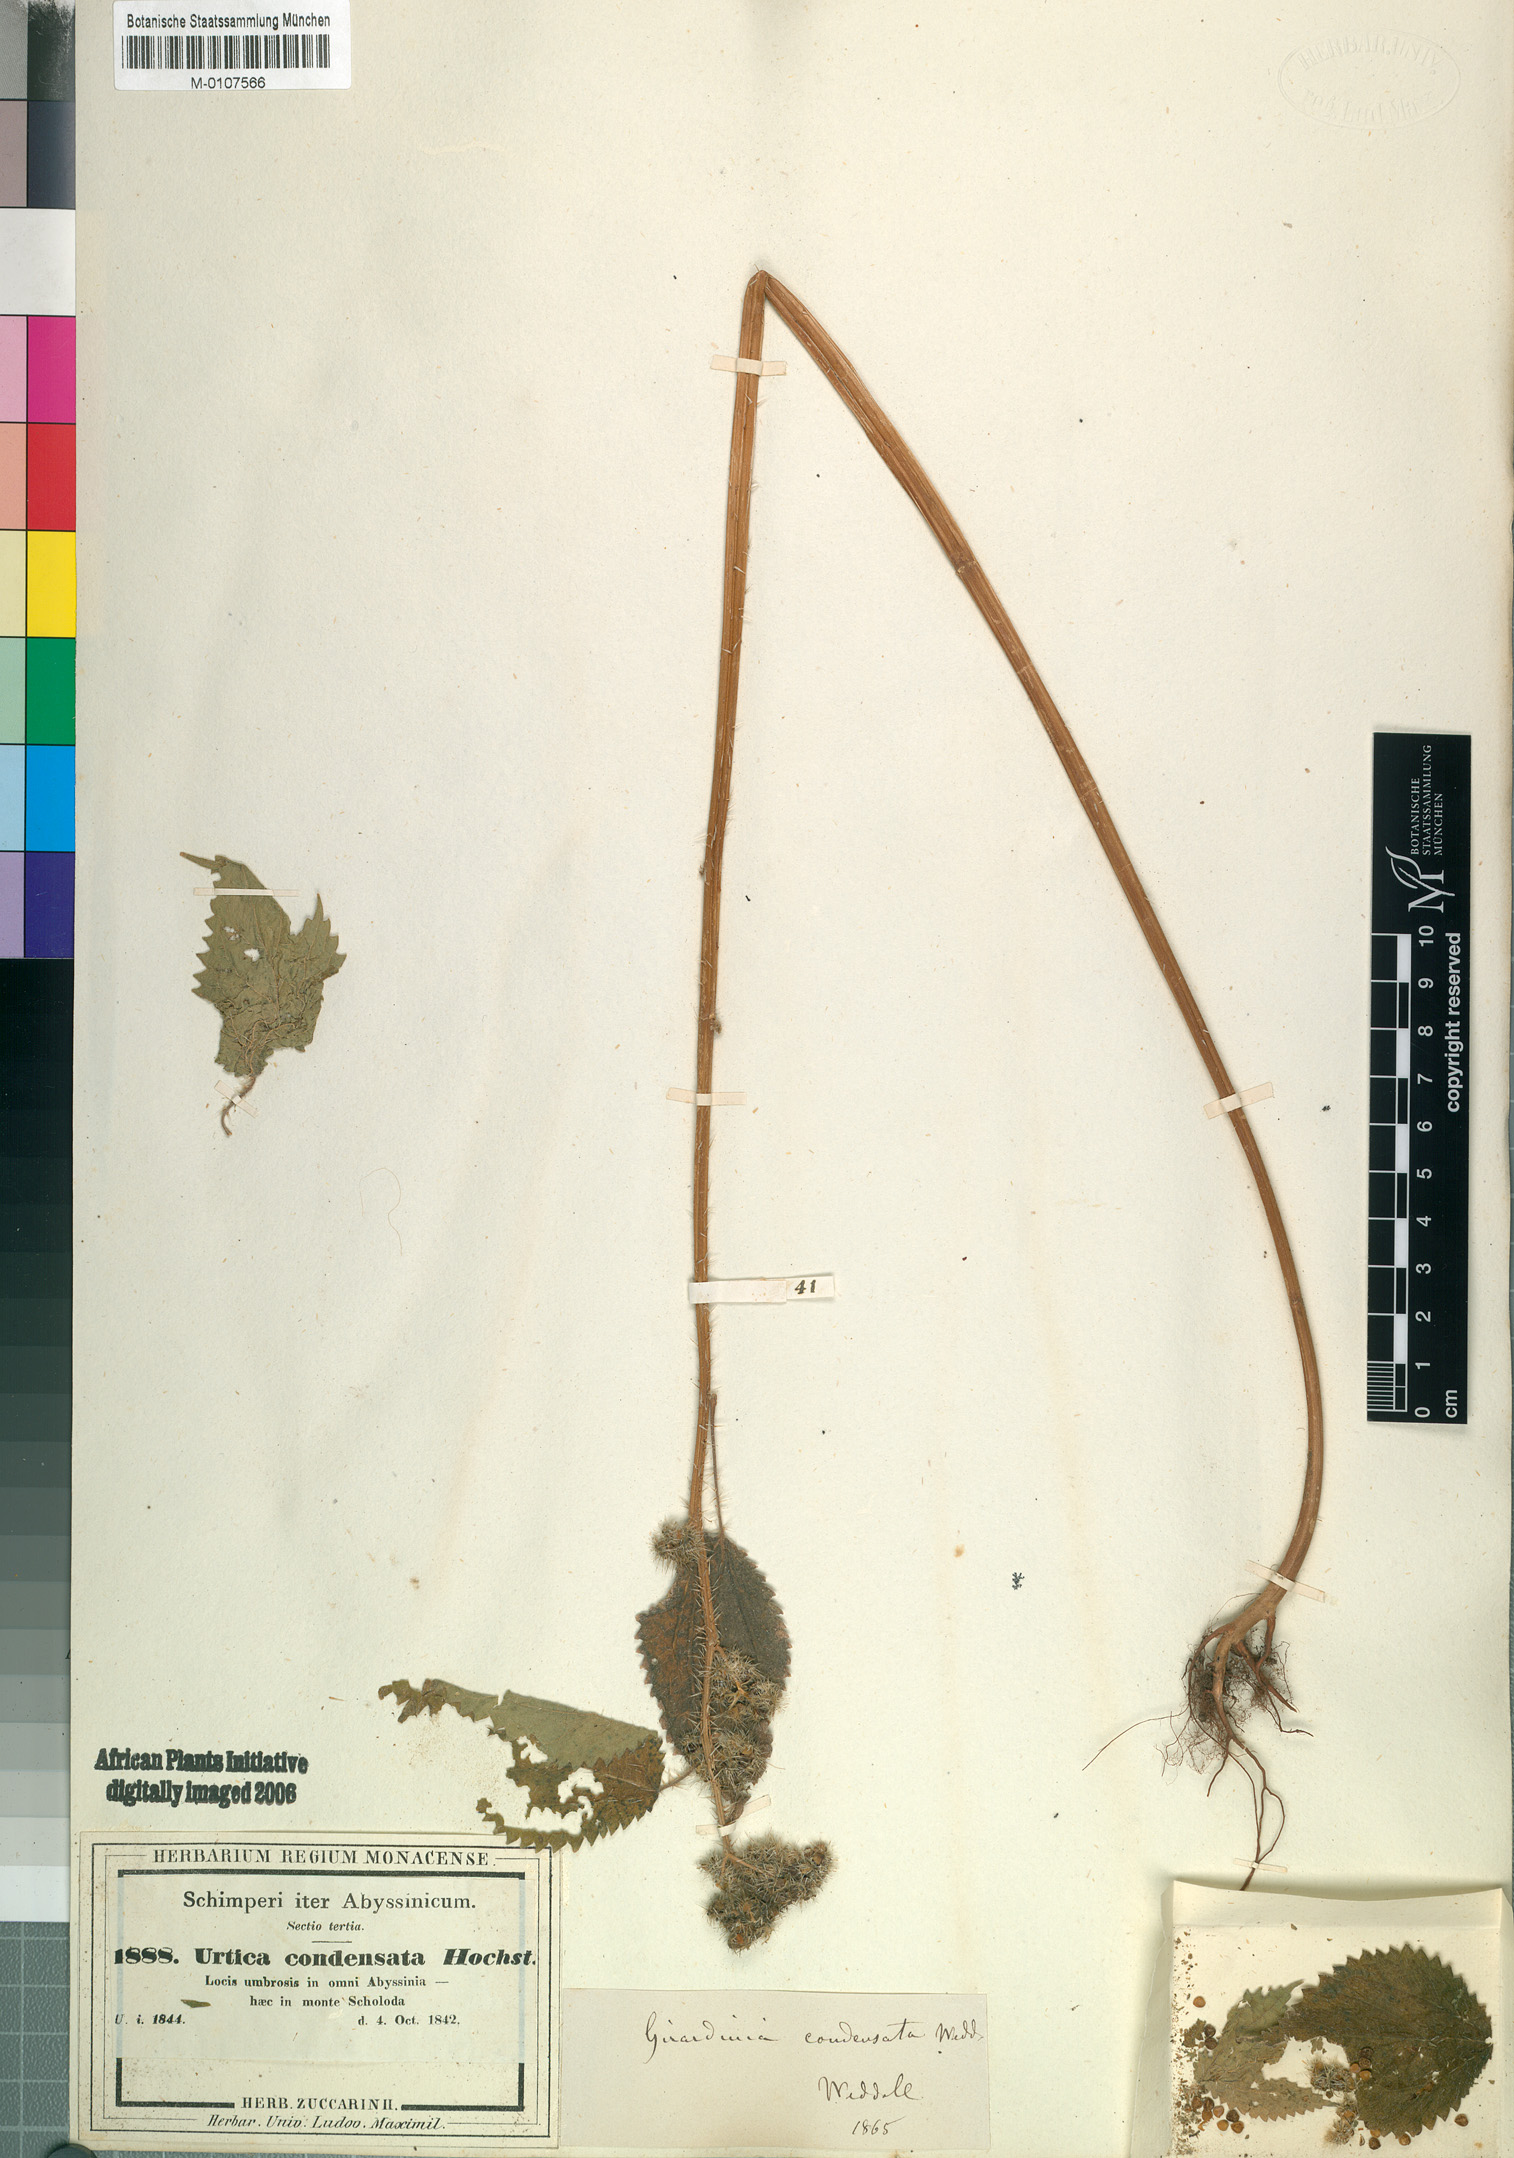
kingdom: Plantae
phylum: Tracheophyta
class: Magnoliopsida
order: Rosales
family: Urticaceae
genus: Girardinia
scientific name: Girardinia diversifolia
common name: Himalayan-nettle
